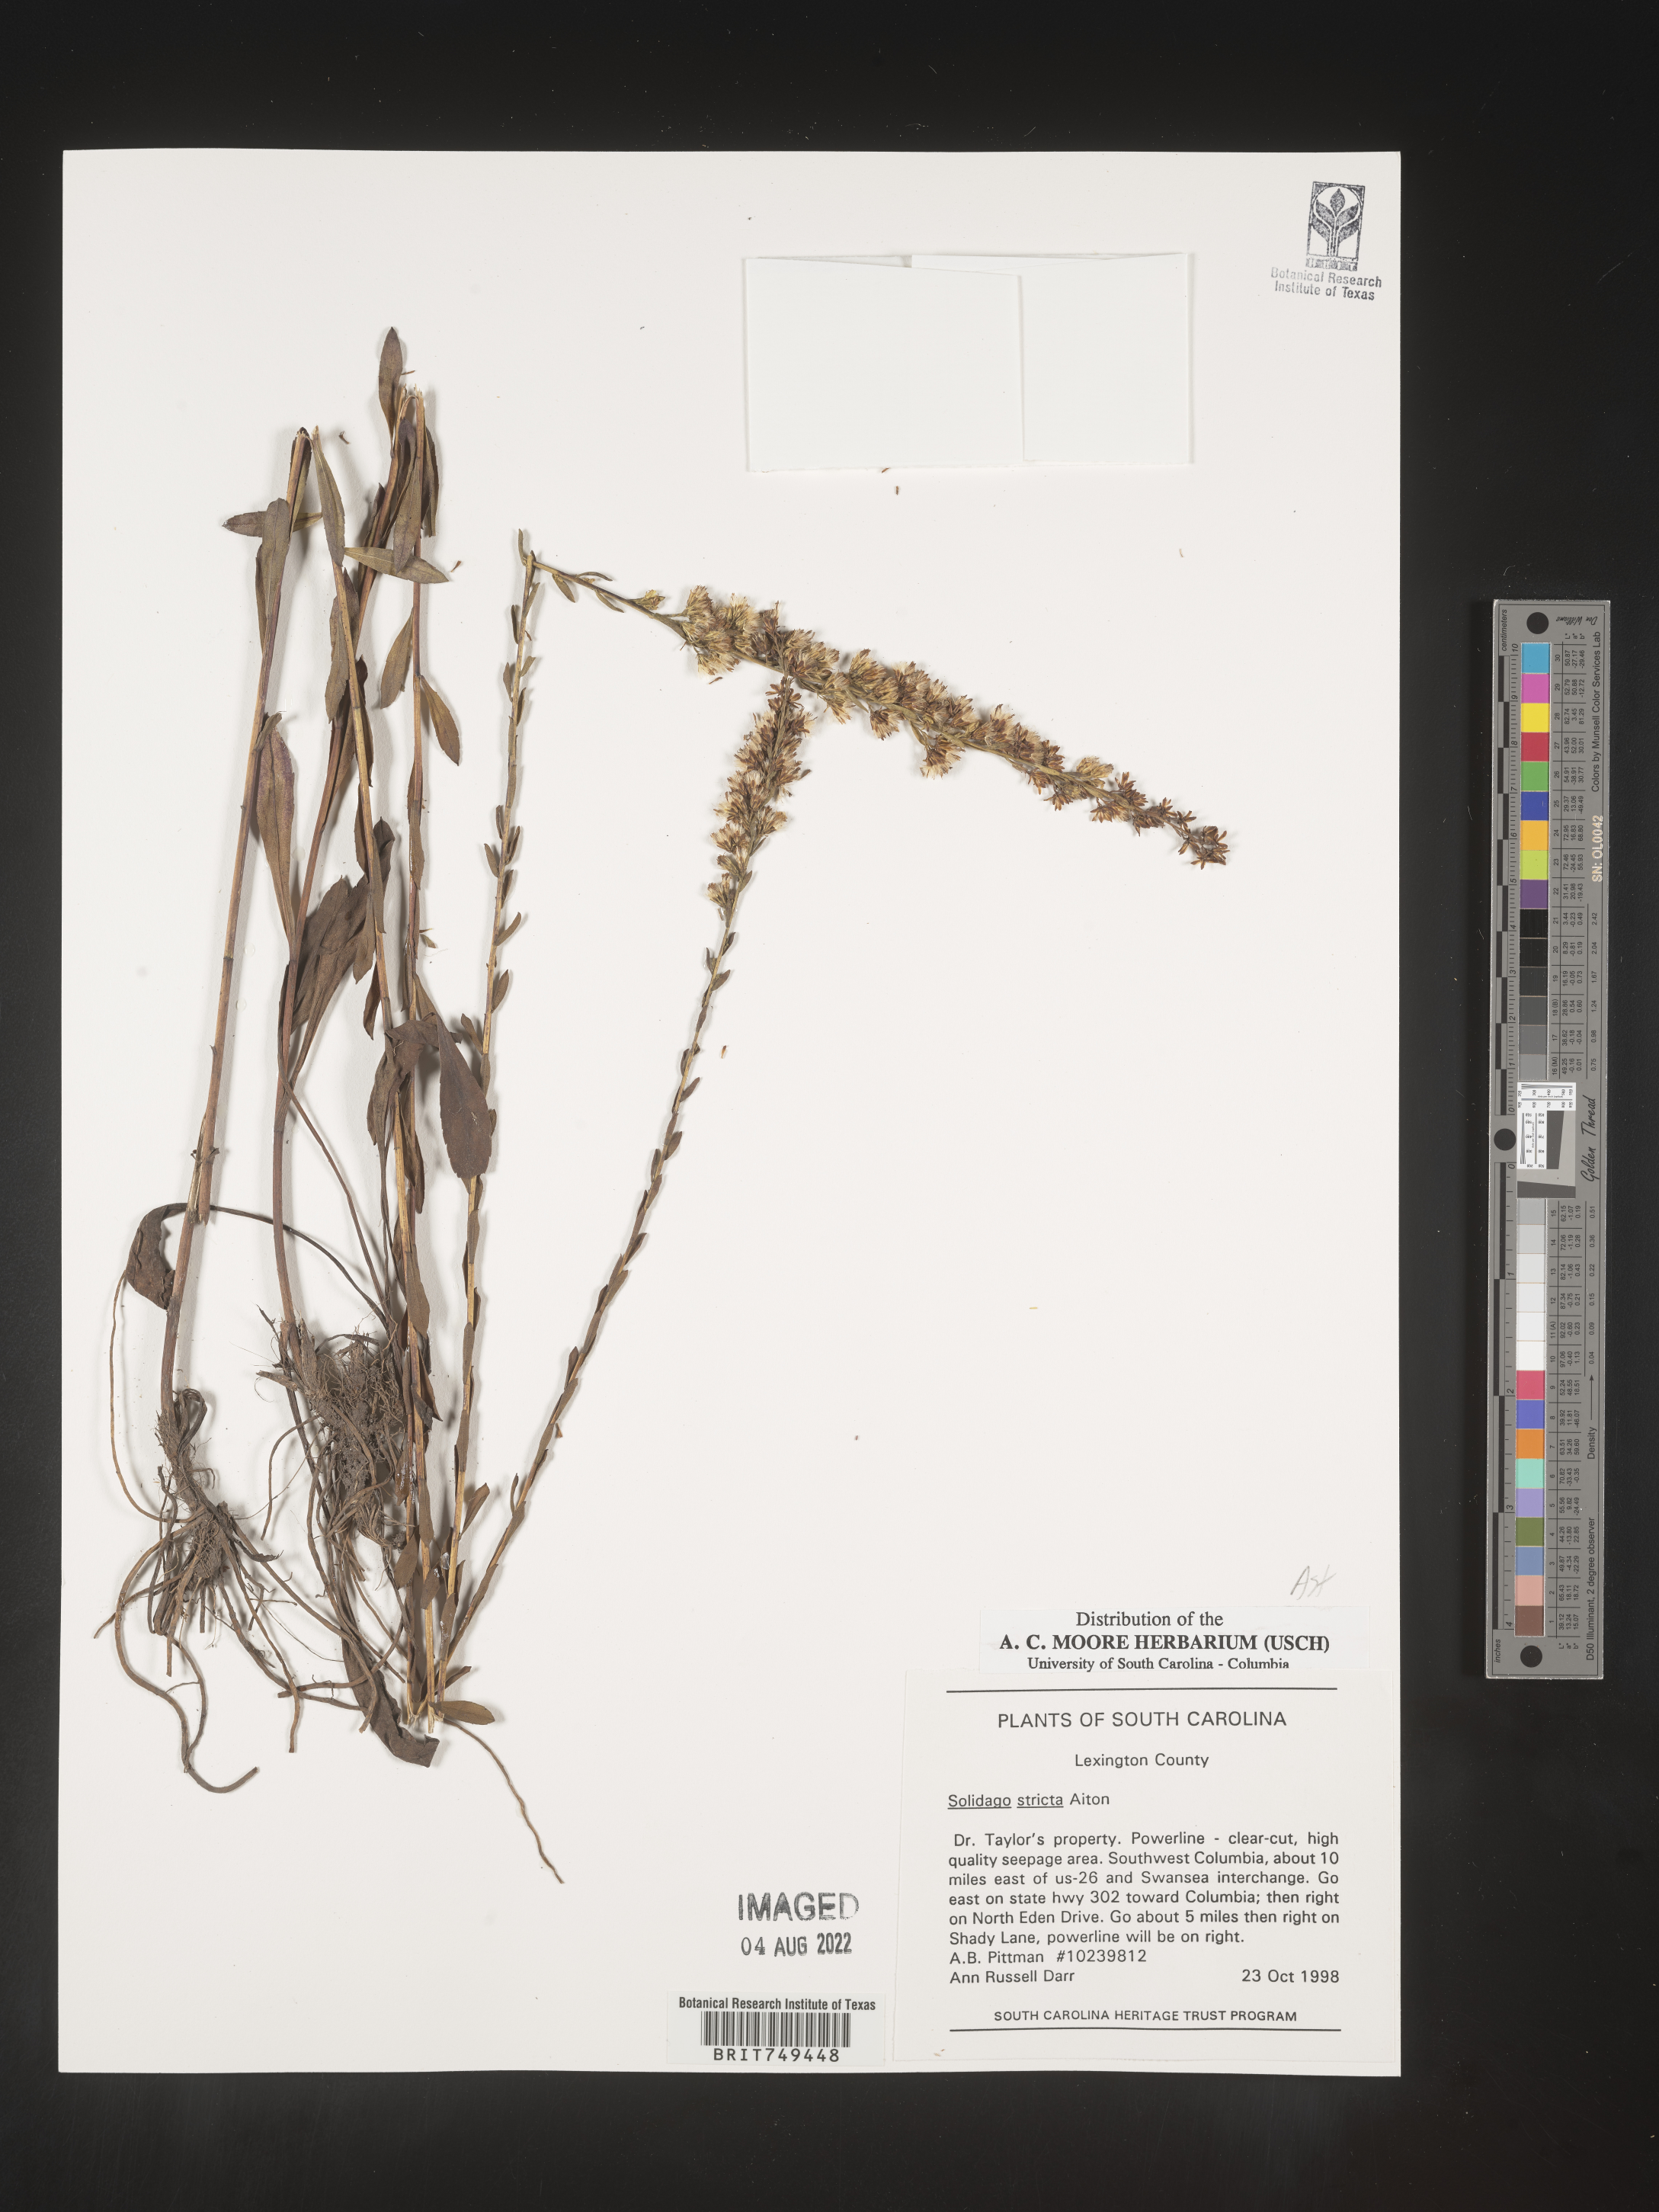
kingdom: Plantae
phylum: Tracheophyta
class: Magnoliopsida
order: Asterales
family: Asteraceae
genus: Solidago
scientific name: Solidago stricta
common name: Pine barren bog goldenrod
